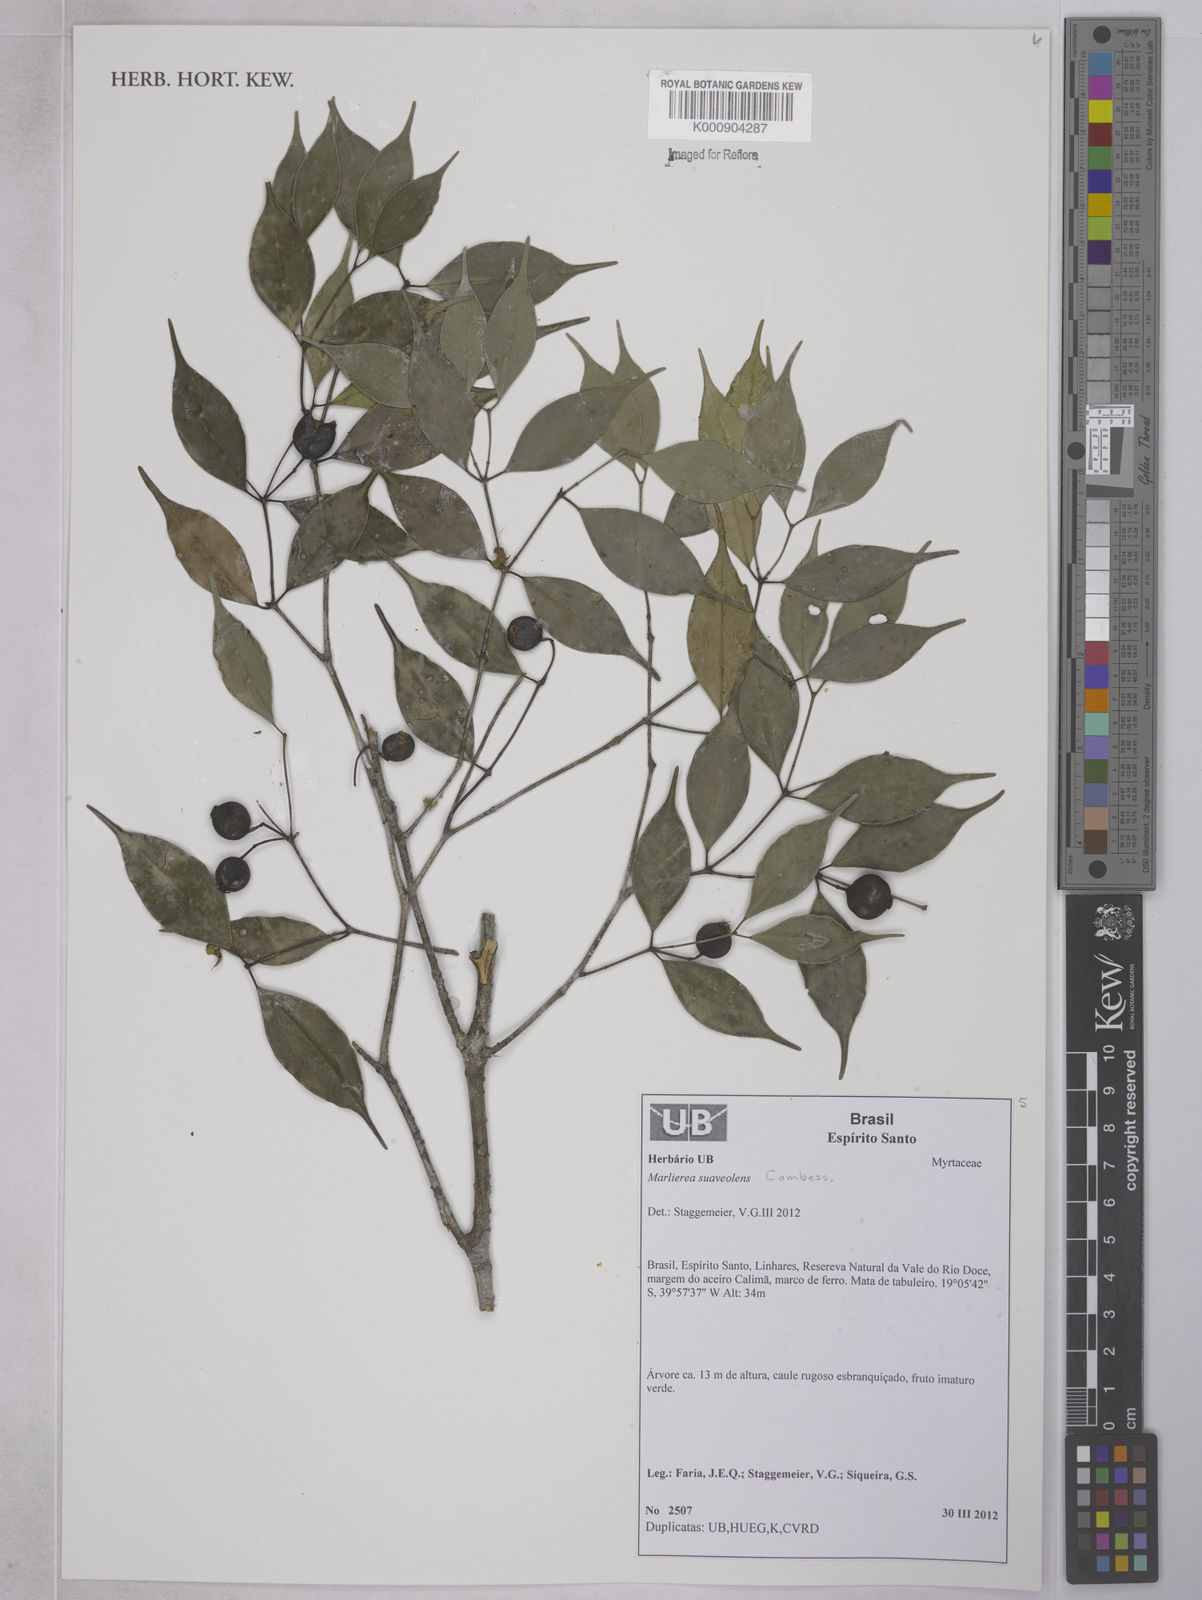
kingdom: Plantae
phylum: Tracheophyta
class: Magnoliopsida
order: Myrtales
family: Myrtaceae
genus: Myrcia
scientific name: Myrcia neosuaveolens
